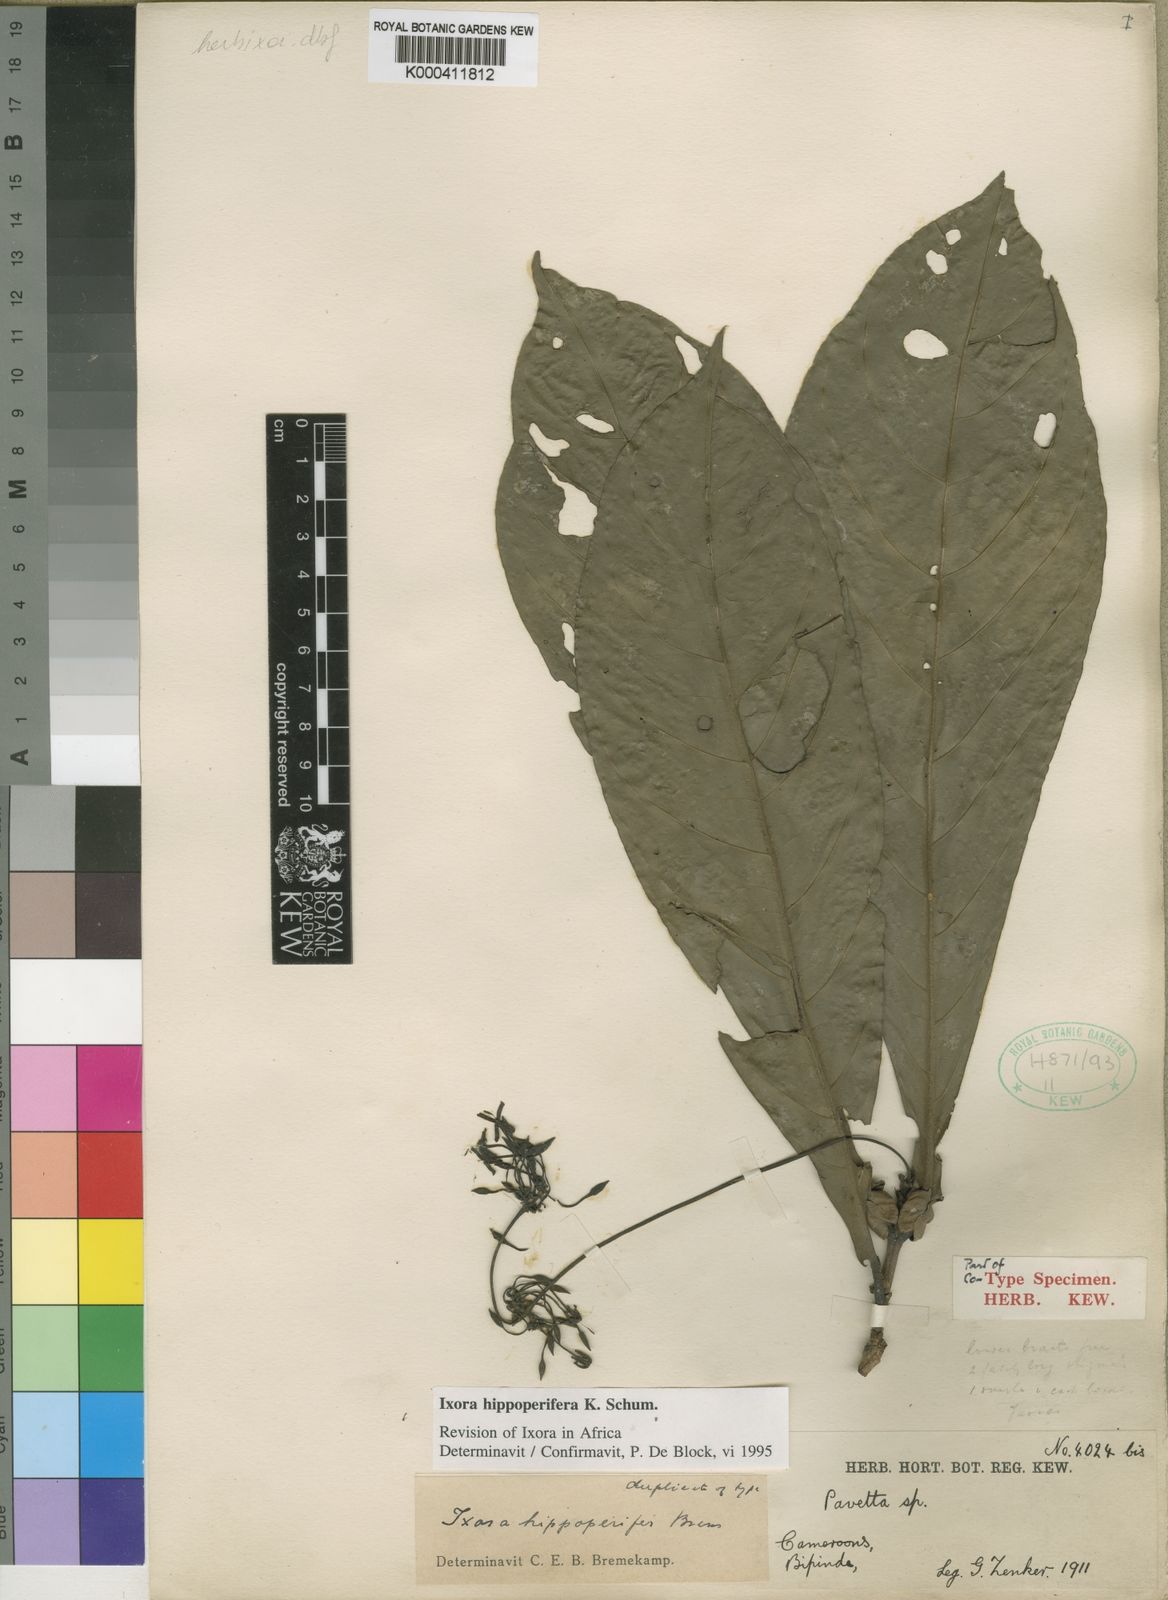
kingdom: Plantae
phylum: Tracheophyta
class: Magnoliopsida
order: Gentianales
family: Rubiaceae
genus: Ixora
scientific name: Ixora hippoperifera
